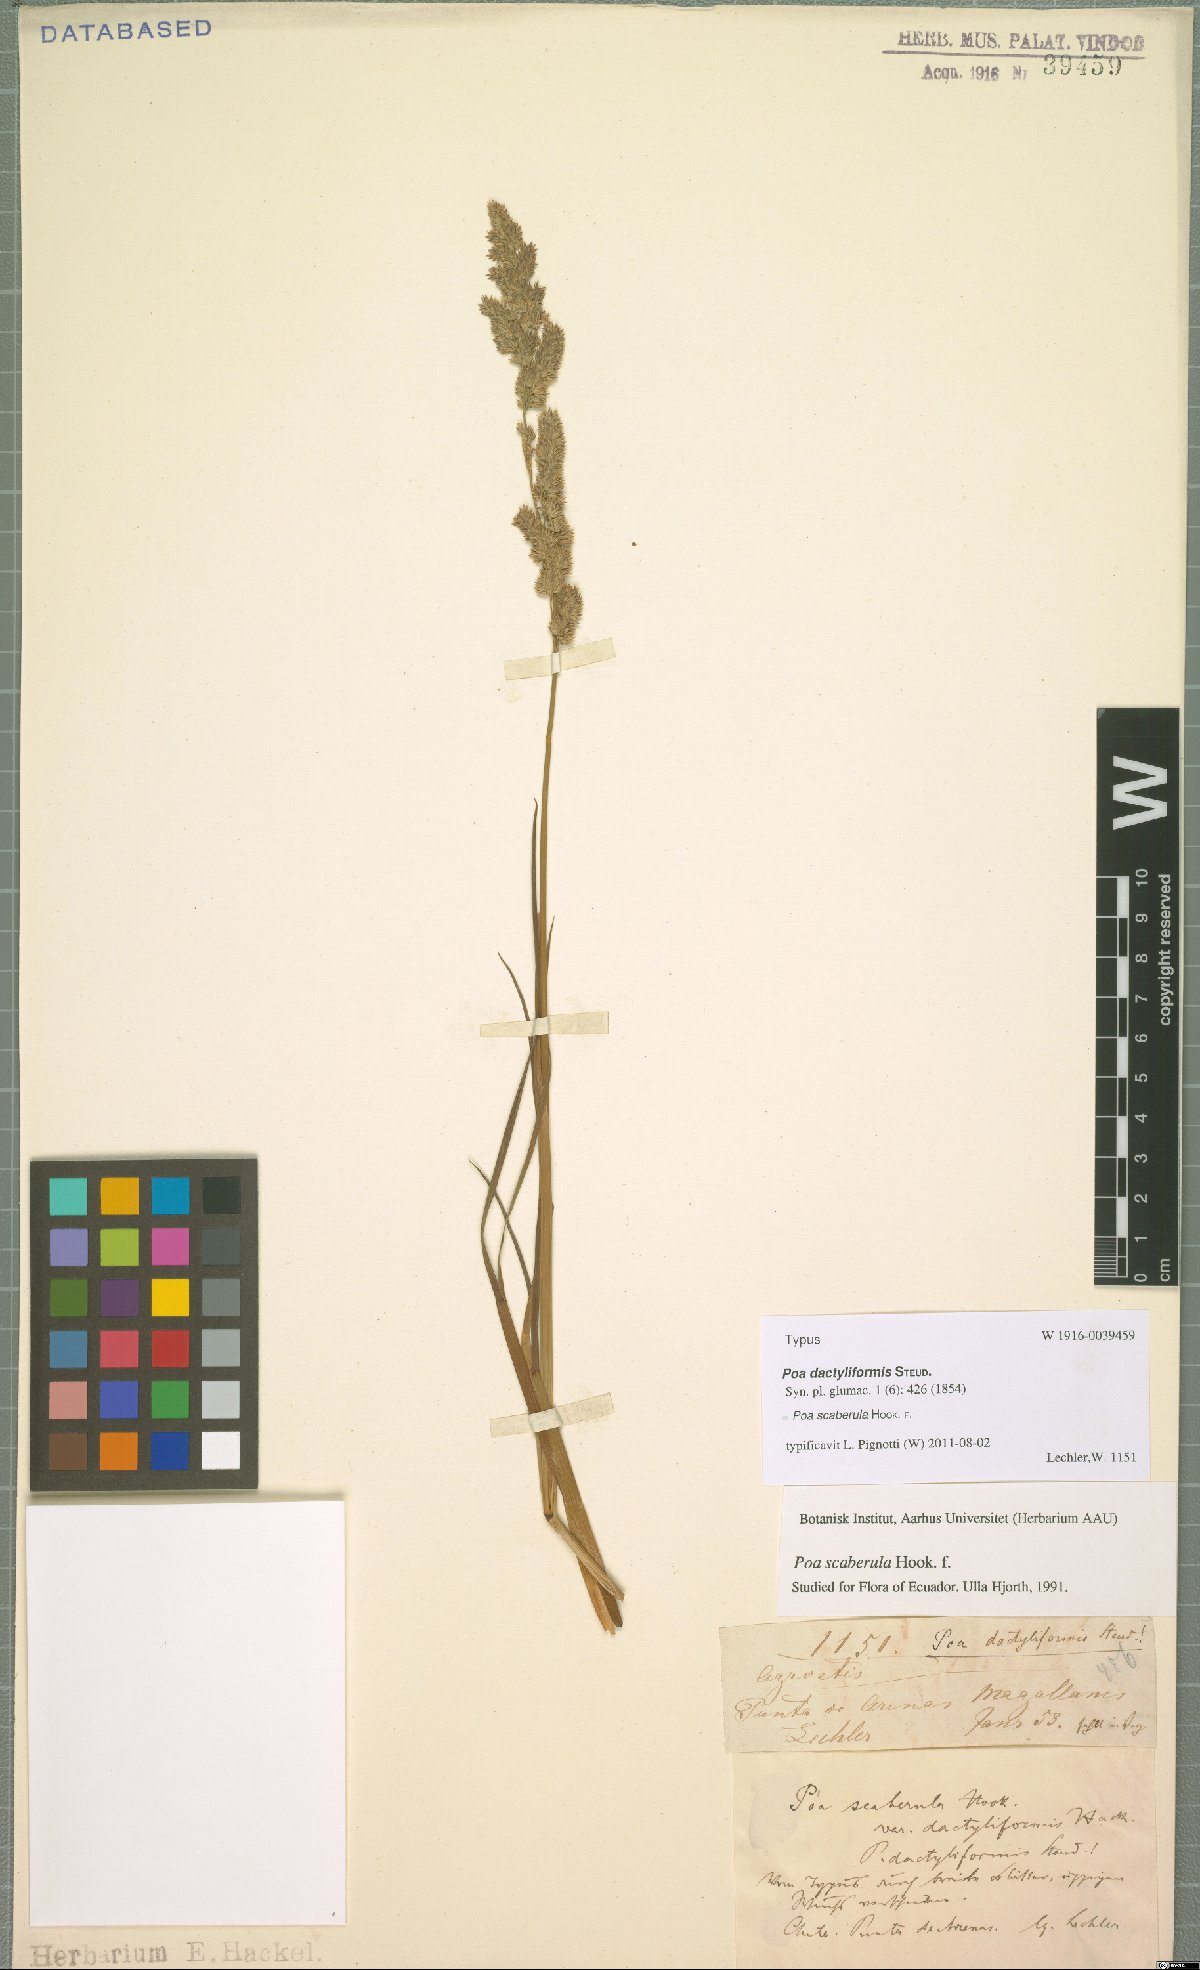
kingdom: Plantae
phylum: Tracheophyta
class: Liliopsida
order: Poales
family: Poaceae
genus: Poa
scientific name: Poa scaberula
